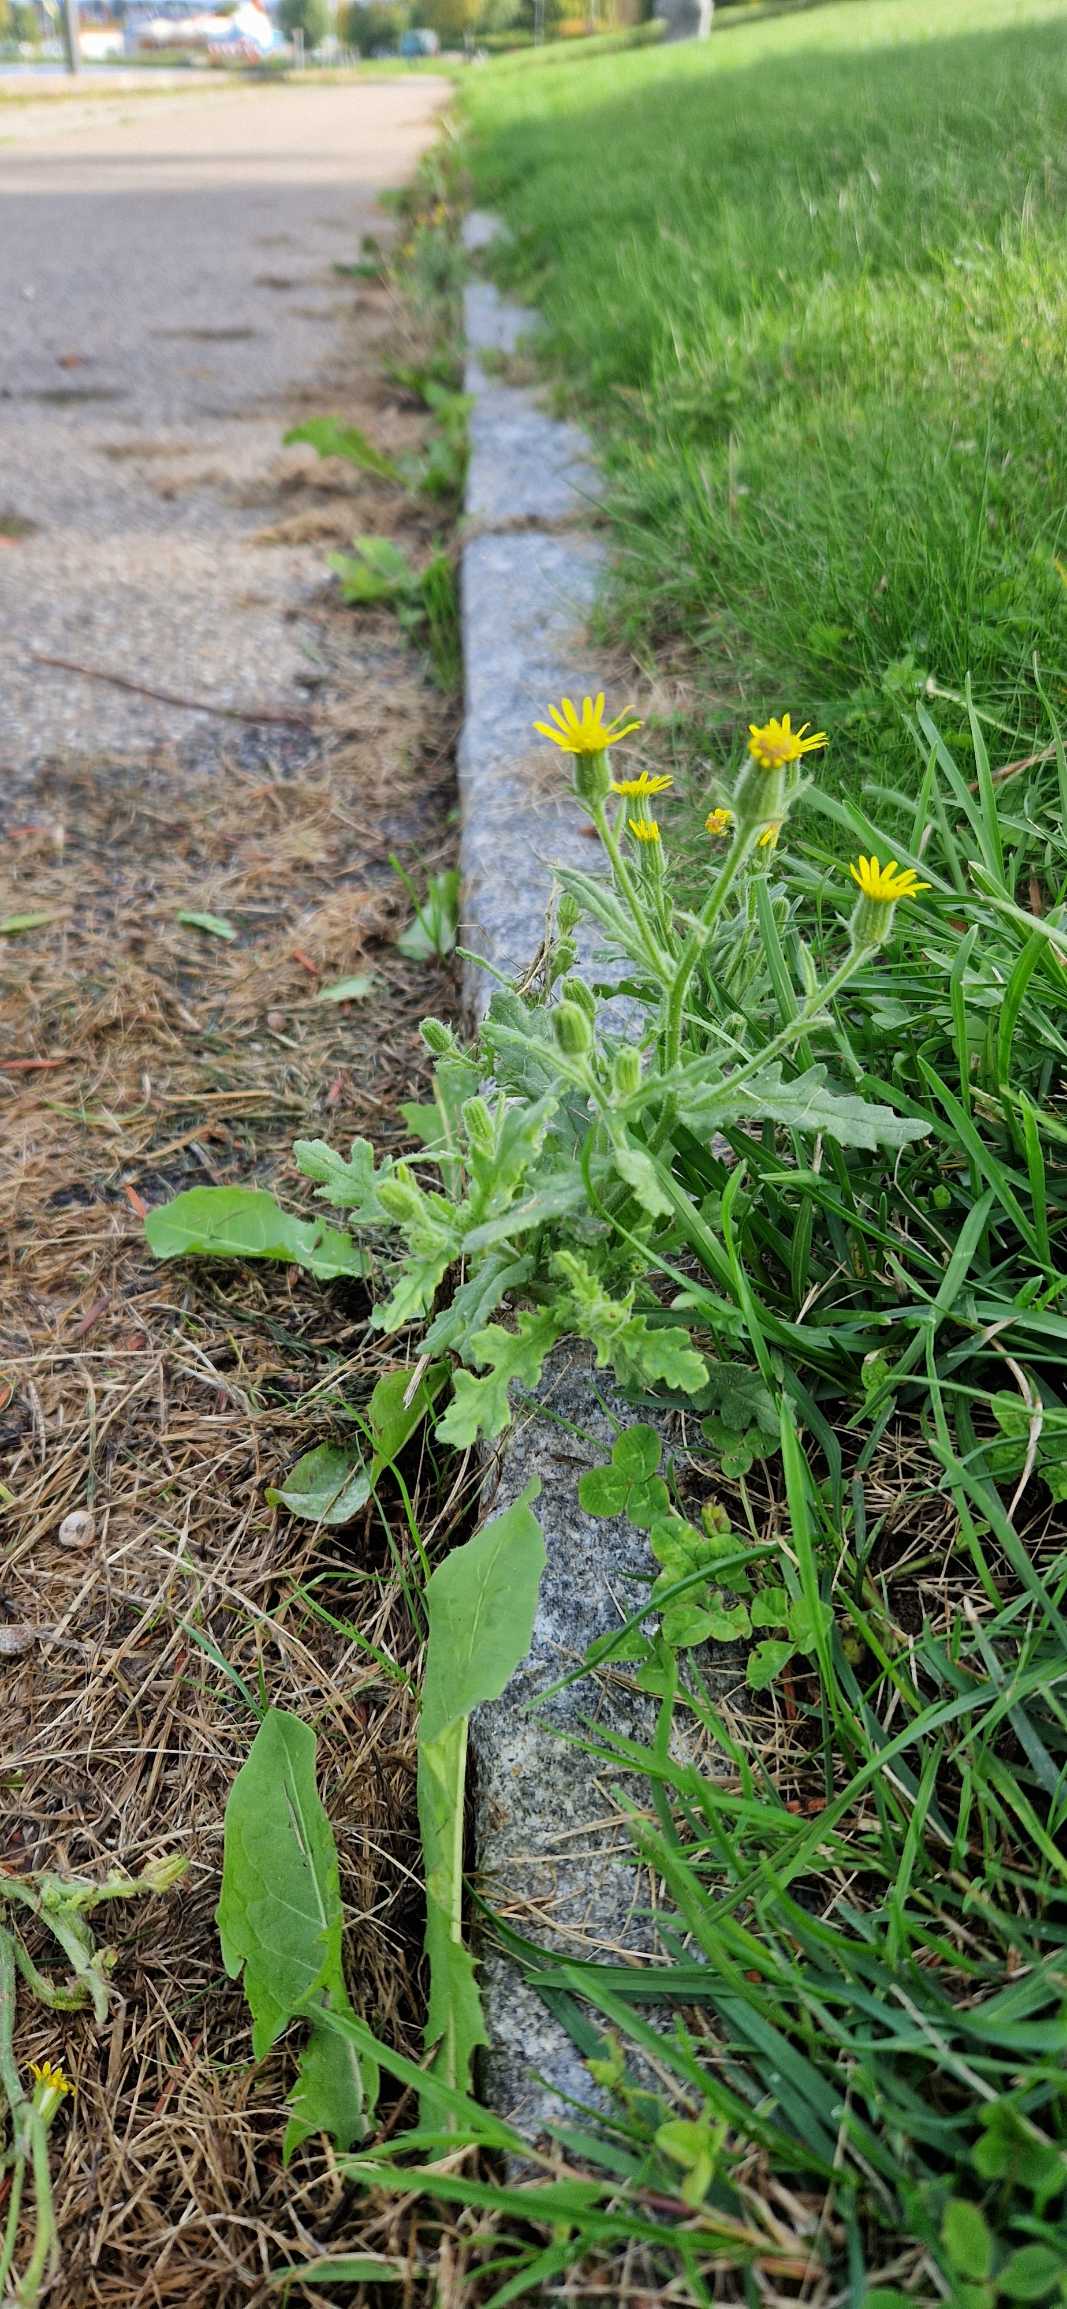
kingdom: Plantae
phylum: Tracheophyta
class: Magnoliopsida
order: Asterales
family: Asteraceae
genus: Senecio
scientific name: Senecio viscosus
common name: Klæbrig brandbæger
